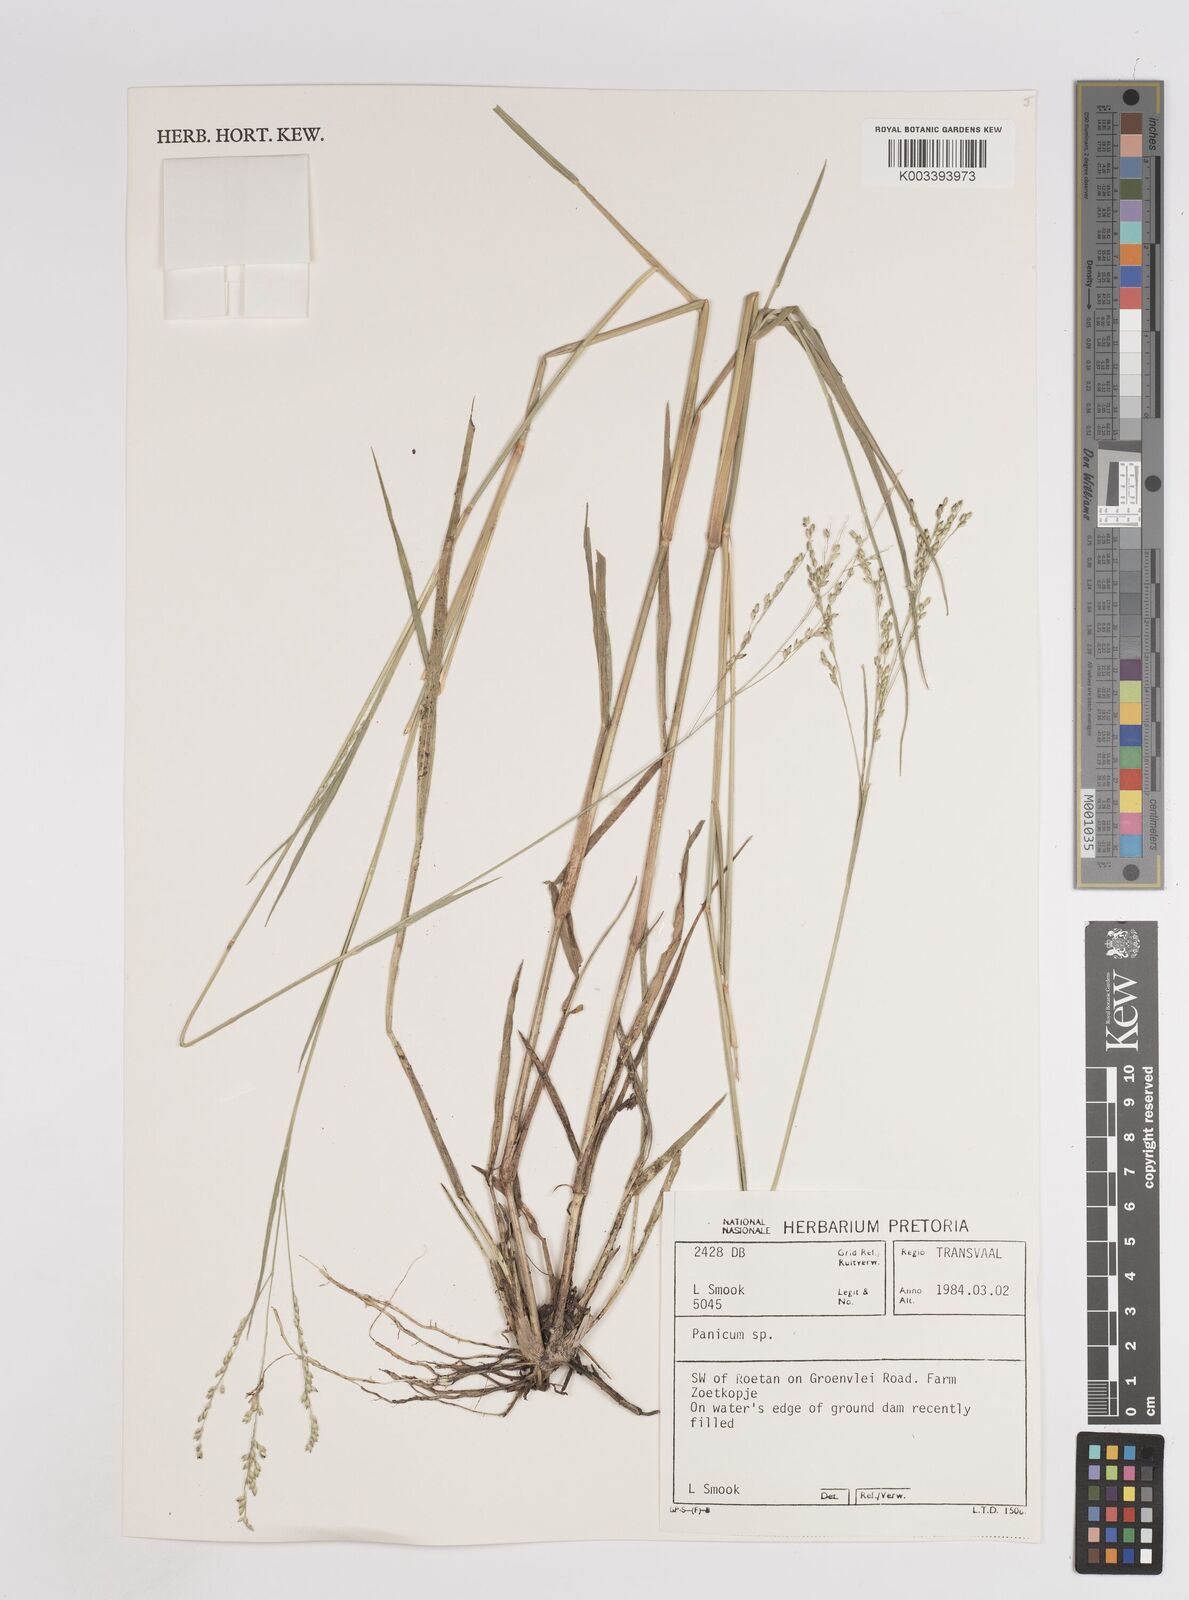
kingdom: Plantae
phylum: Tracheophyta
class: Liliopsida
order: Poales
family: Poaceae
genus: Panicum
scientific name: Panicum coloratum
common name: Kleingrass
